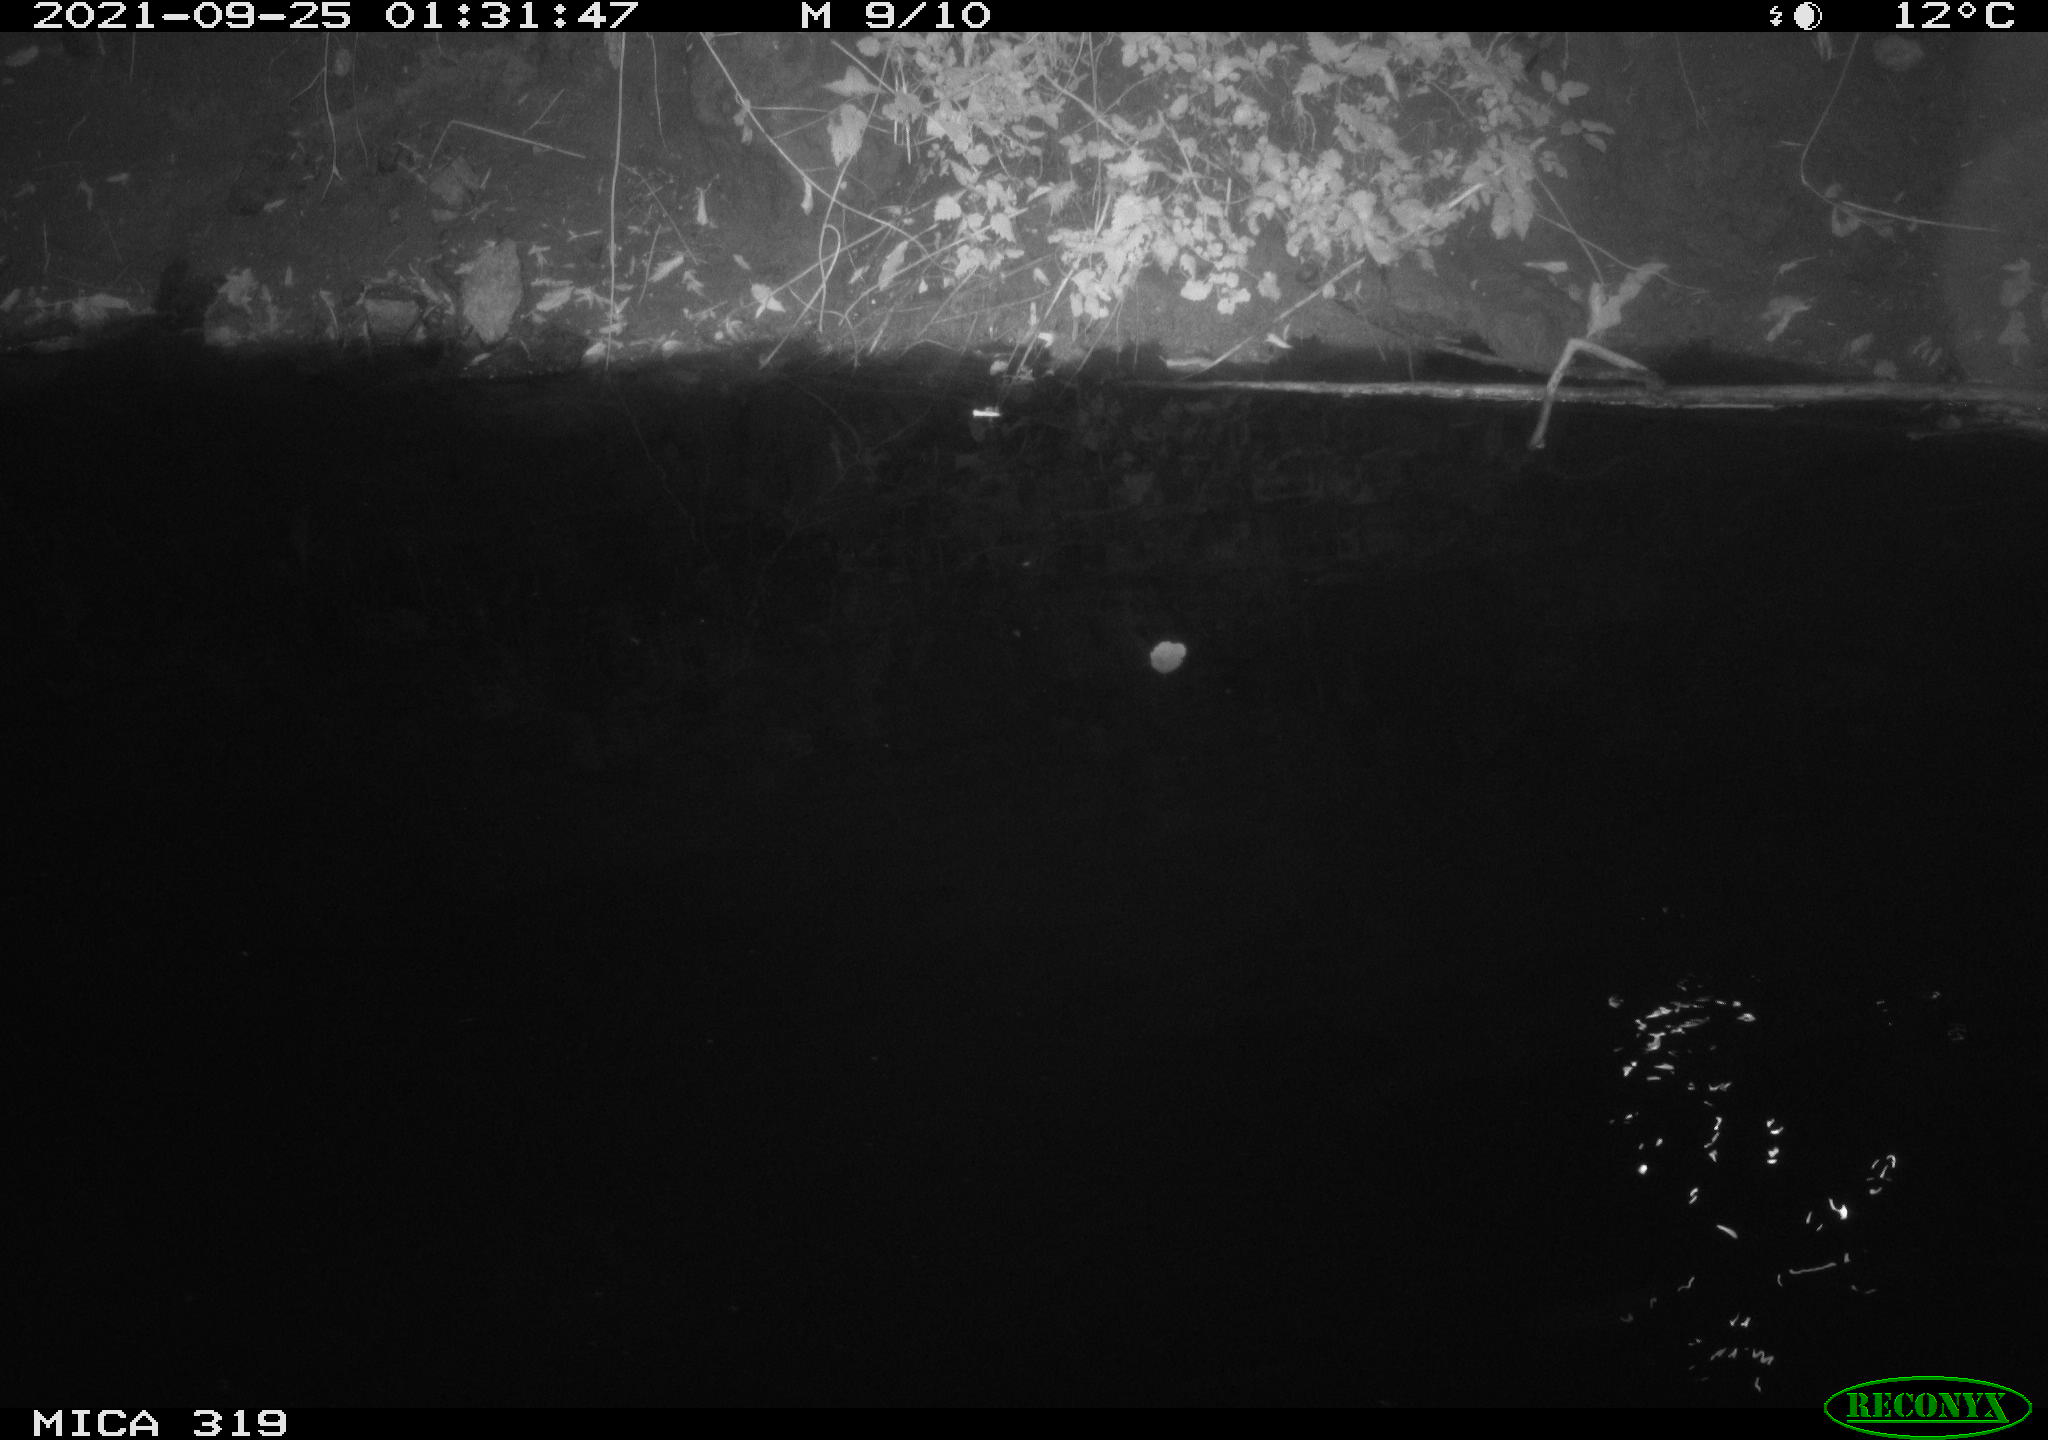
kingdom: Animalia
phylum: Chordata
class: Aves
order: Anseriformes
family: Anatidae
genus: Anas
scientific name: Anas platyrhynchos
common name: Mallard
